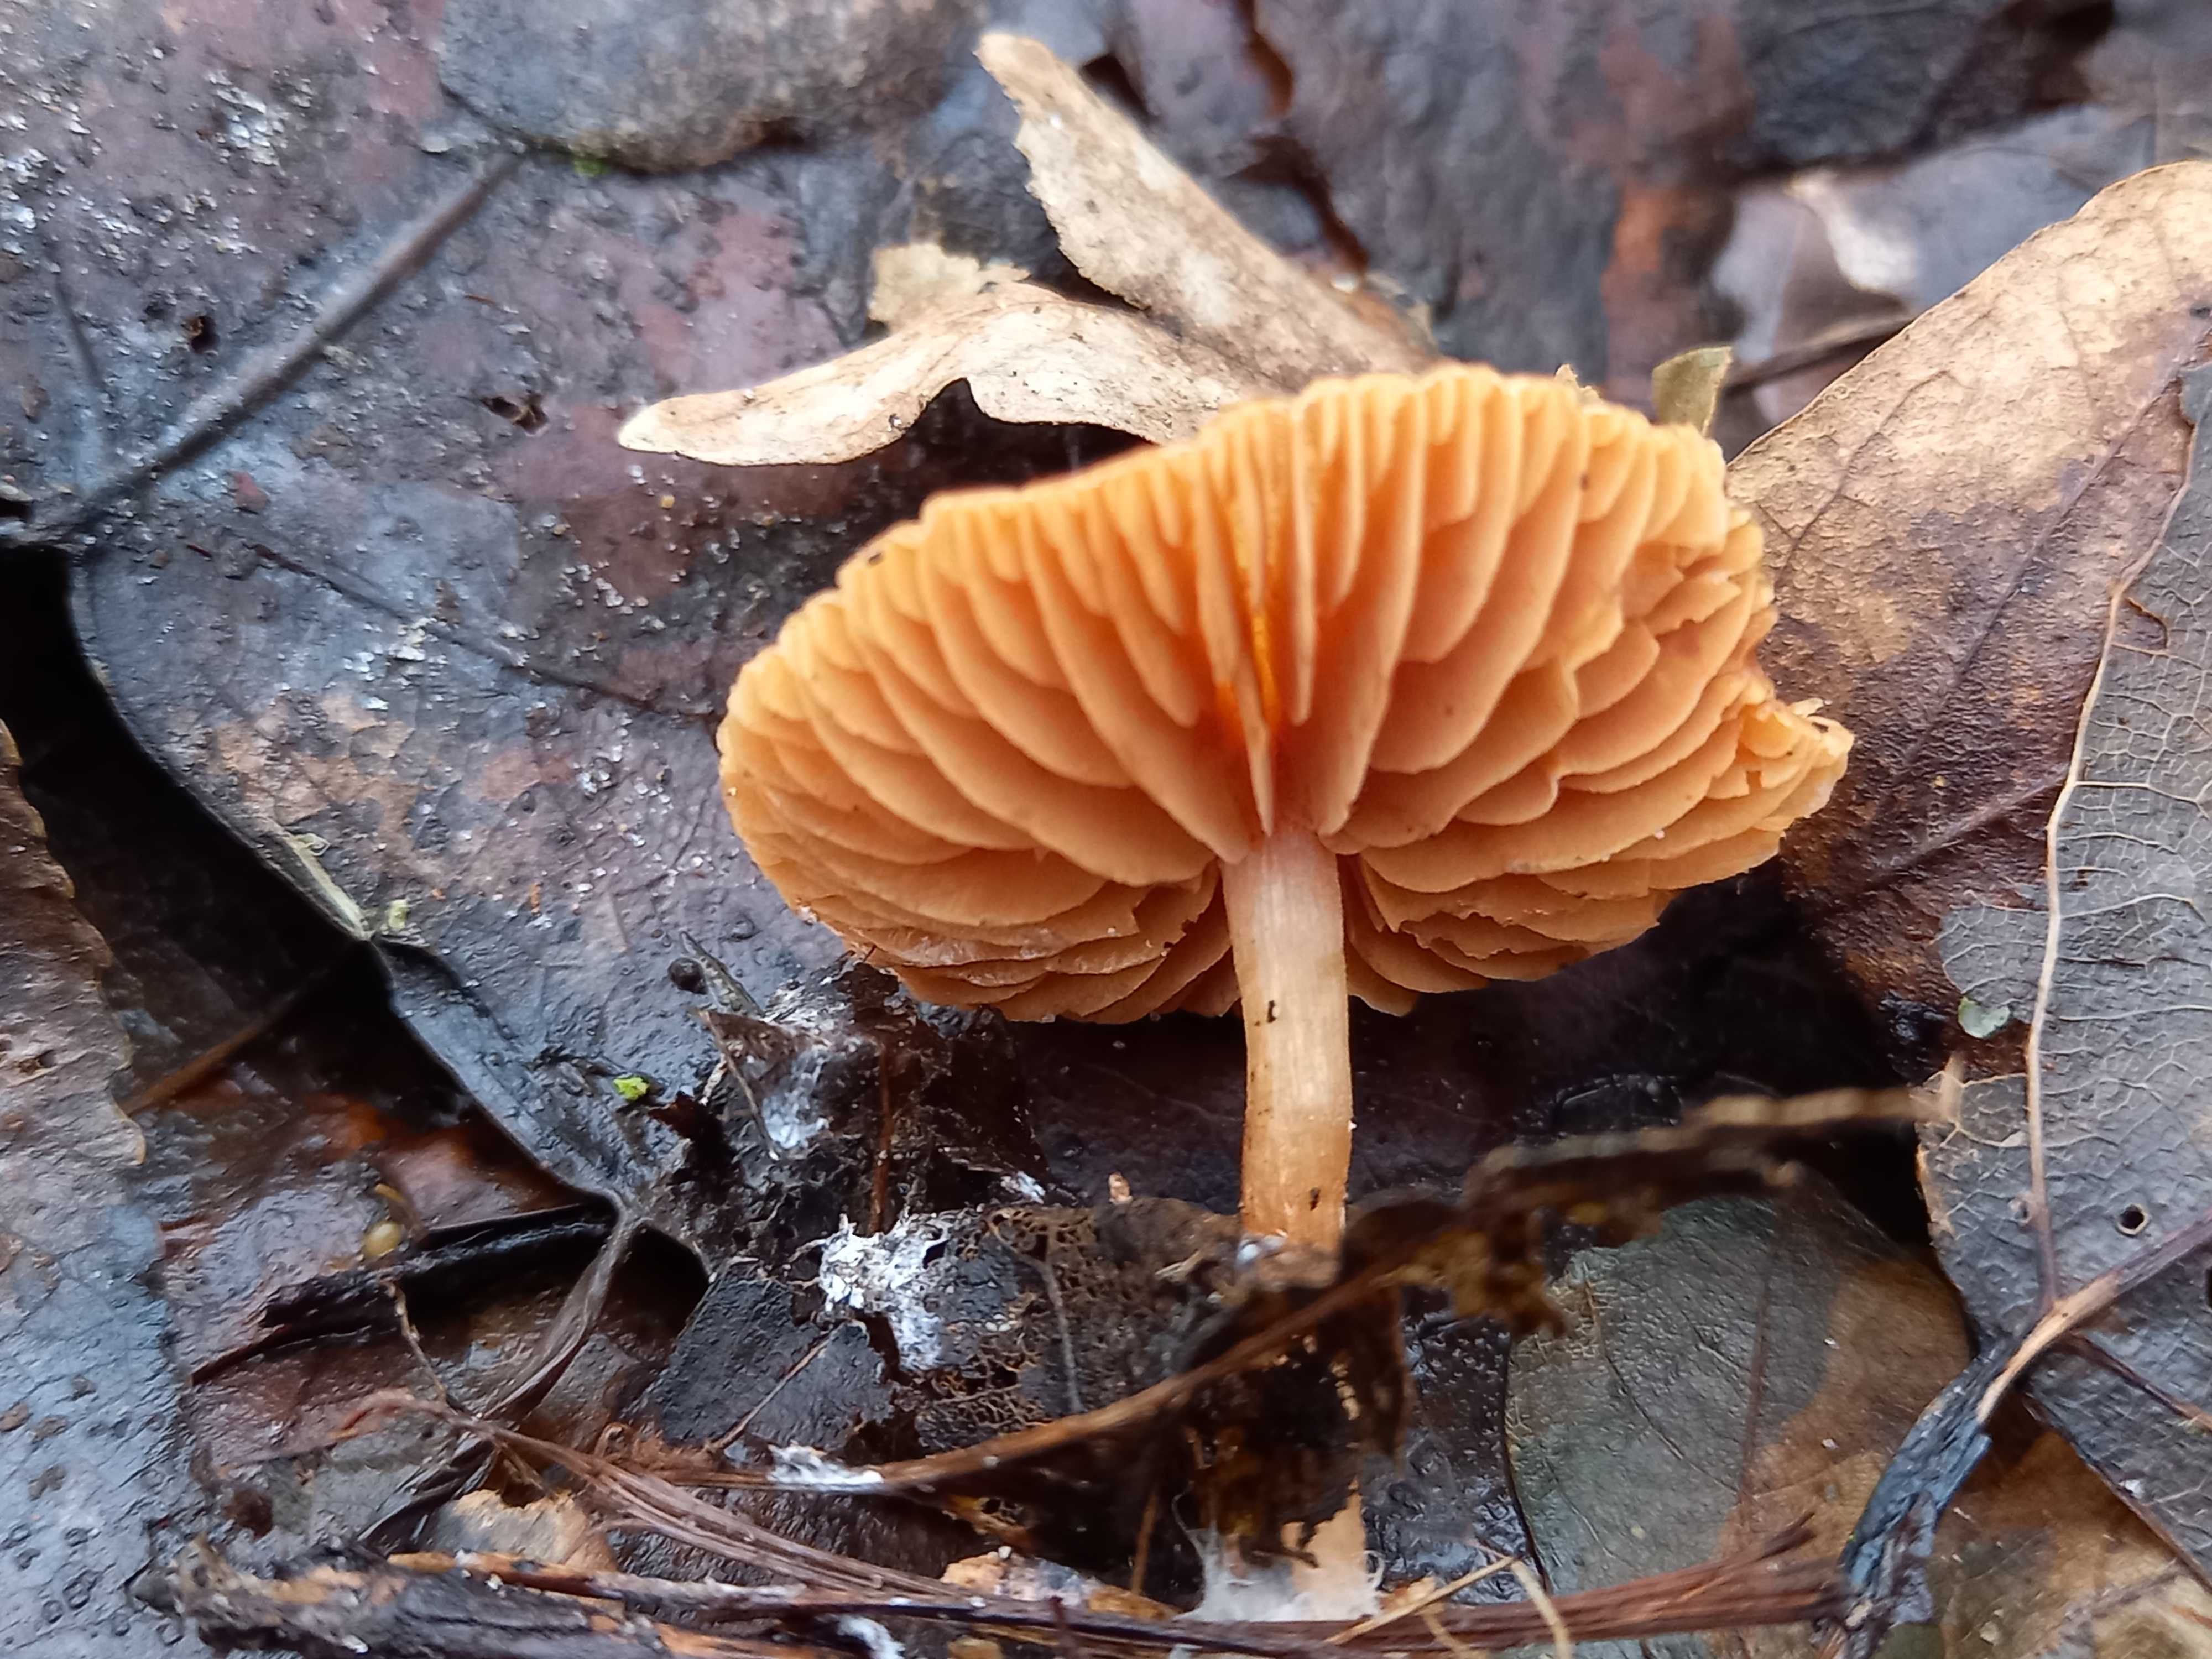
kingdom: Fungi
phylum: Basidiomycota
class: Agaricomycetes
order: Agaricales
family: Tubariaceae
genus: Tubaria
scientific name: Tubaria furfuracea
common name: kliddet fnughat
